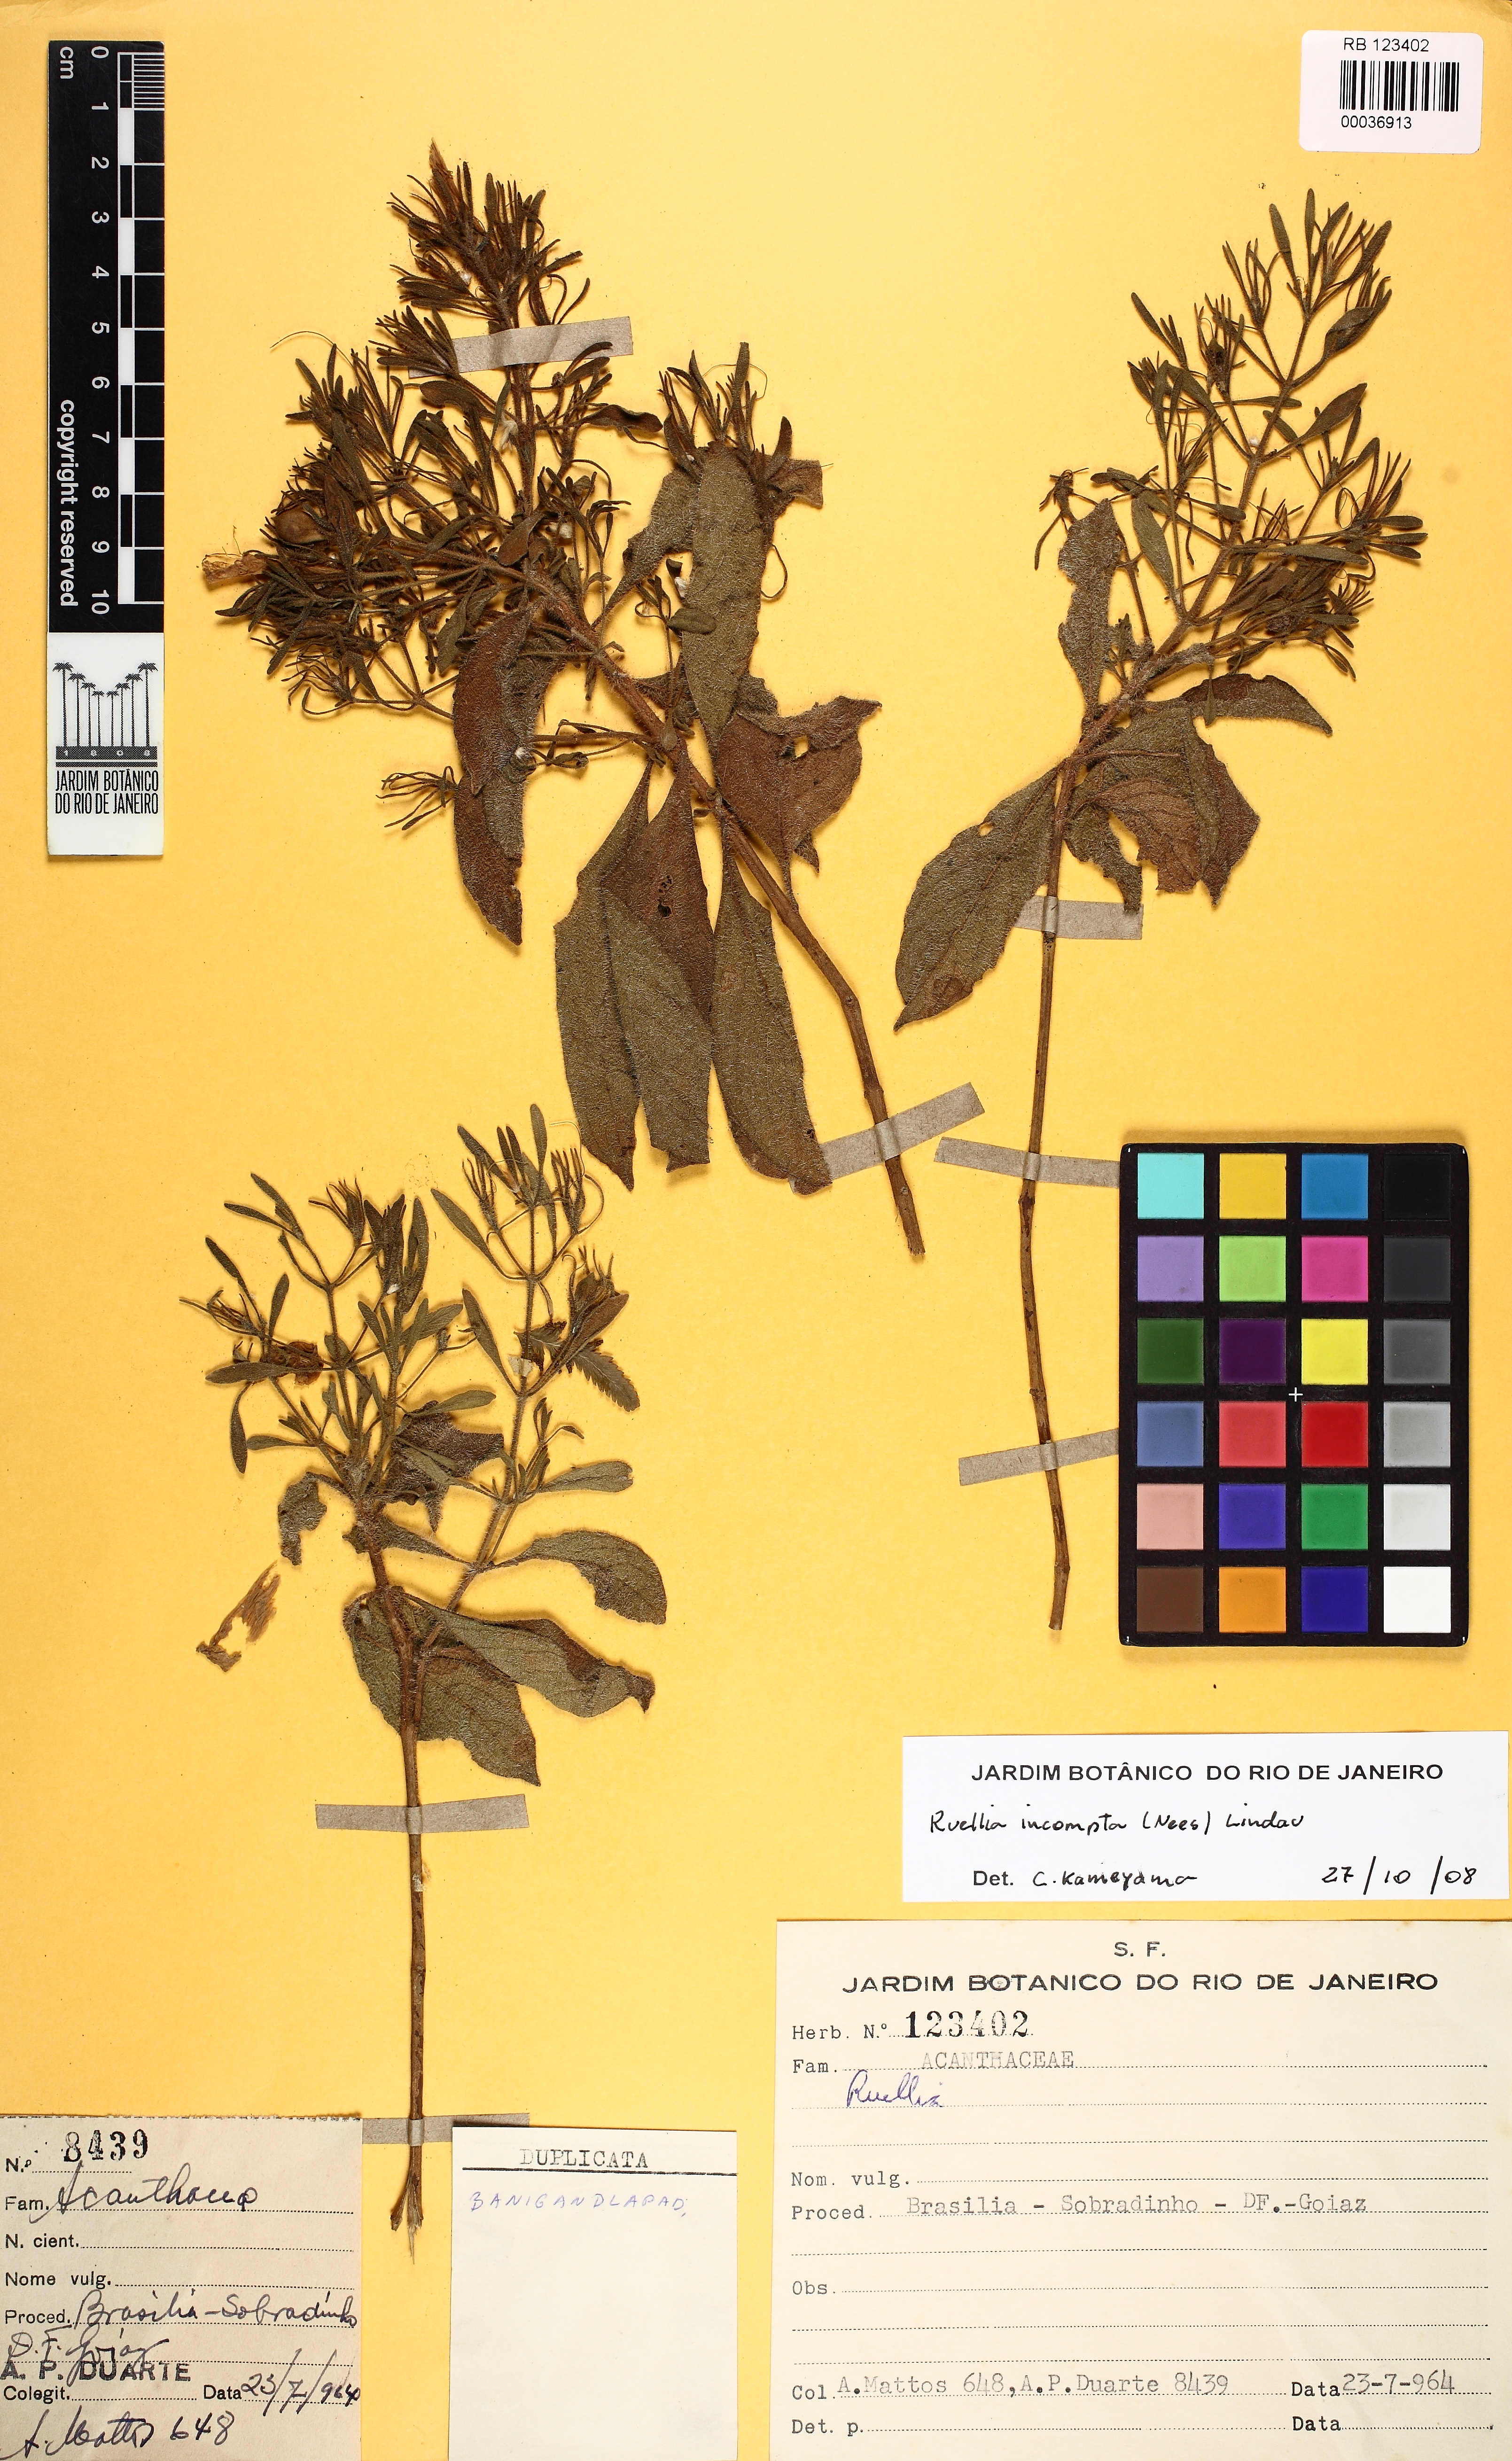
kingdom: Plantae
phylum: Tracheophyta
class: Magnoliopsida
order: Lamiales
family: Acanthaceae
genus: Ruellia
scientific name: Ruellia incomta
